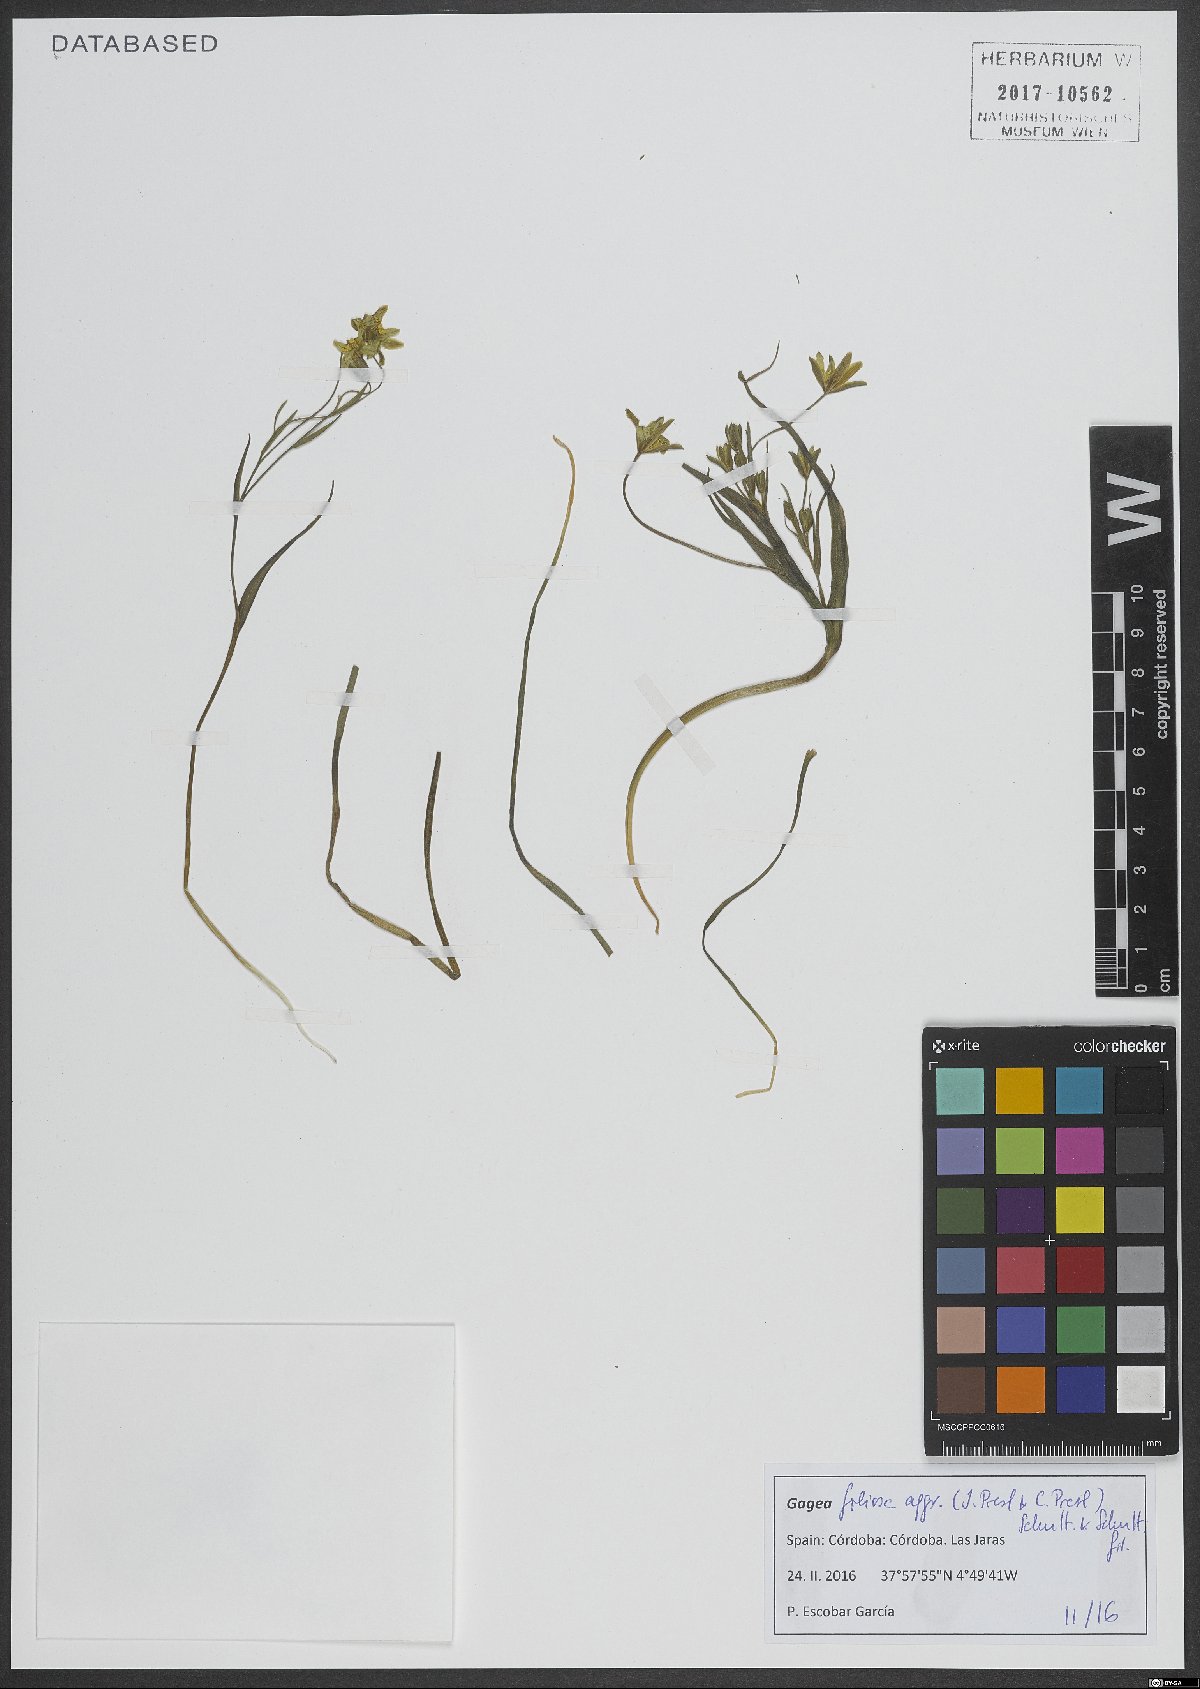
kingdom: Plantae
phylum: Tracheophyta
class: Liliopsida
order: Liliales
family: Liliaceae
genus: Gagea
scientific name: Gagea foliosa
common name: Leafy gagea
